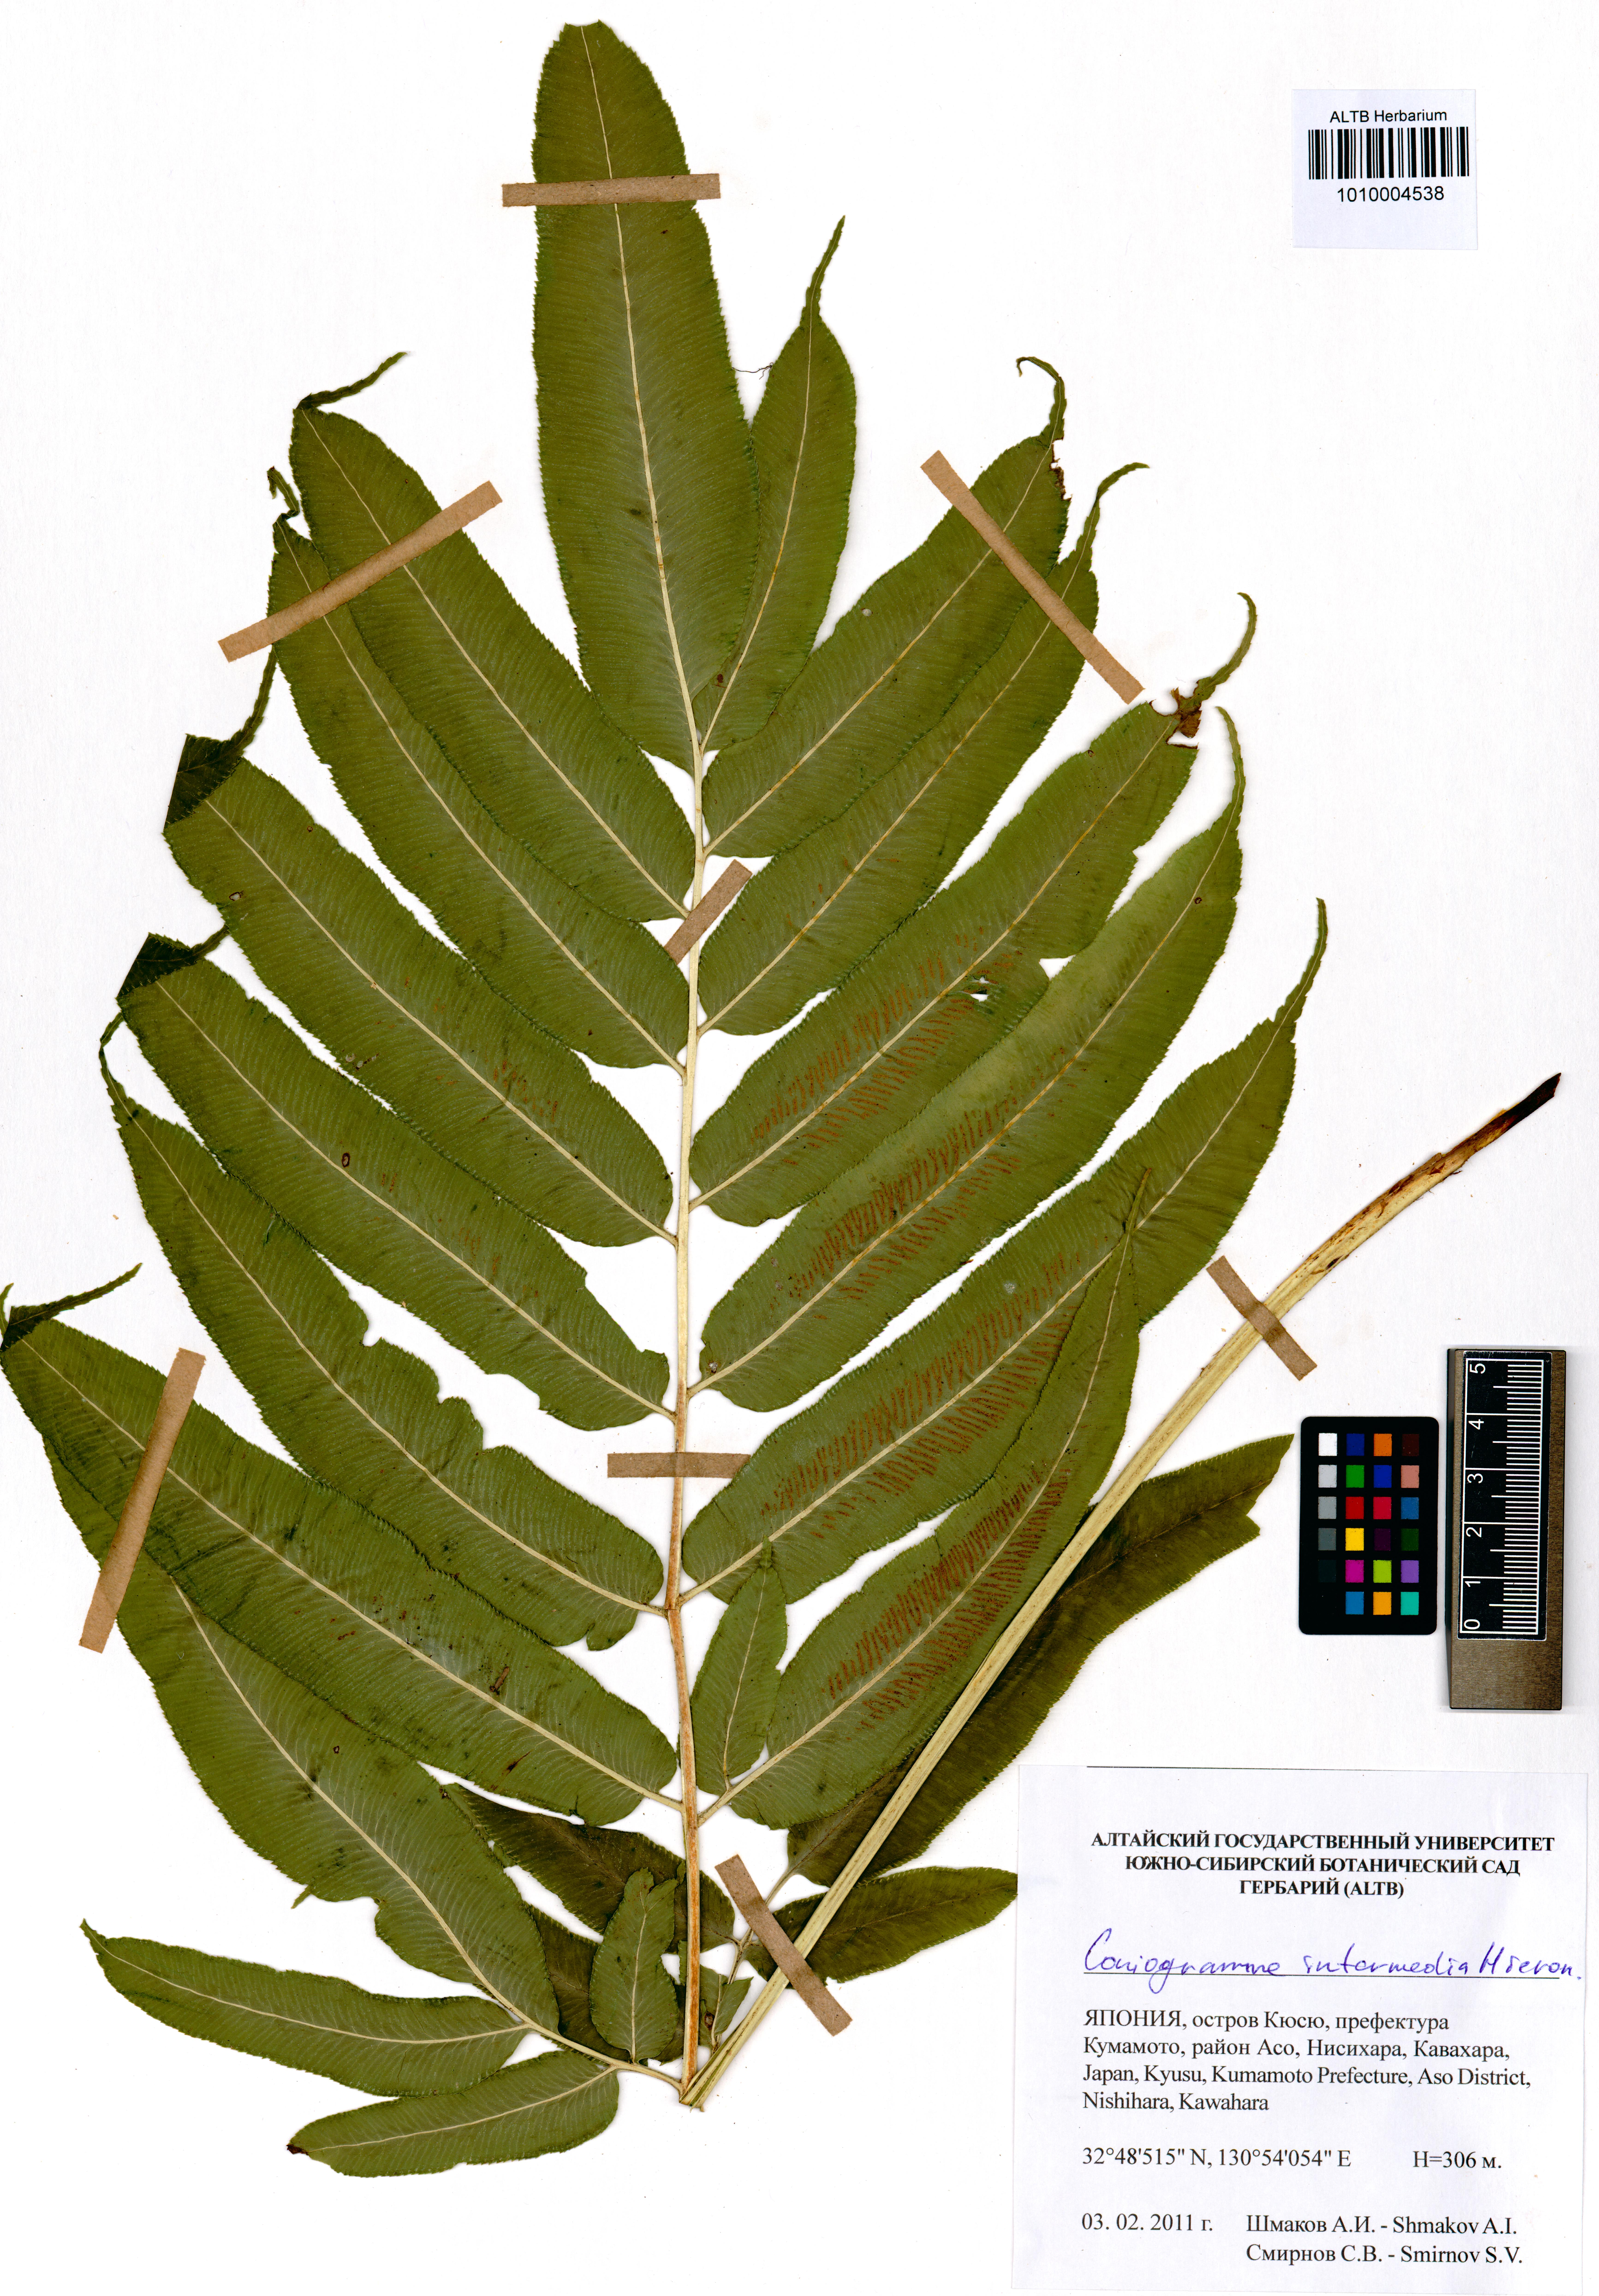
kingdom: Plantae
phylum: Tracheophyta
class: Polypodiopsida
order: Polypodiales
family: Pteridaceae
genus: Coniogramme
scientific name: Coniogramme intermedia
